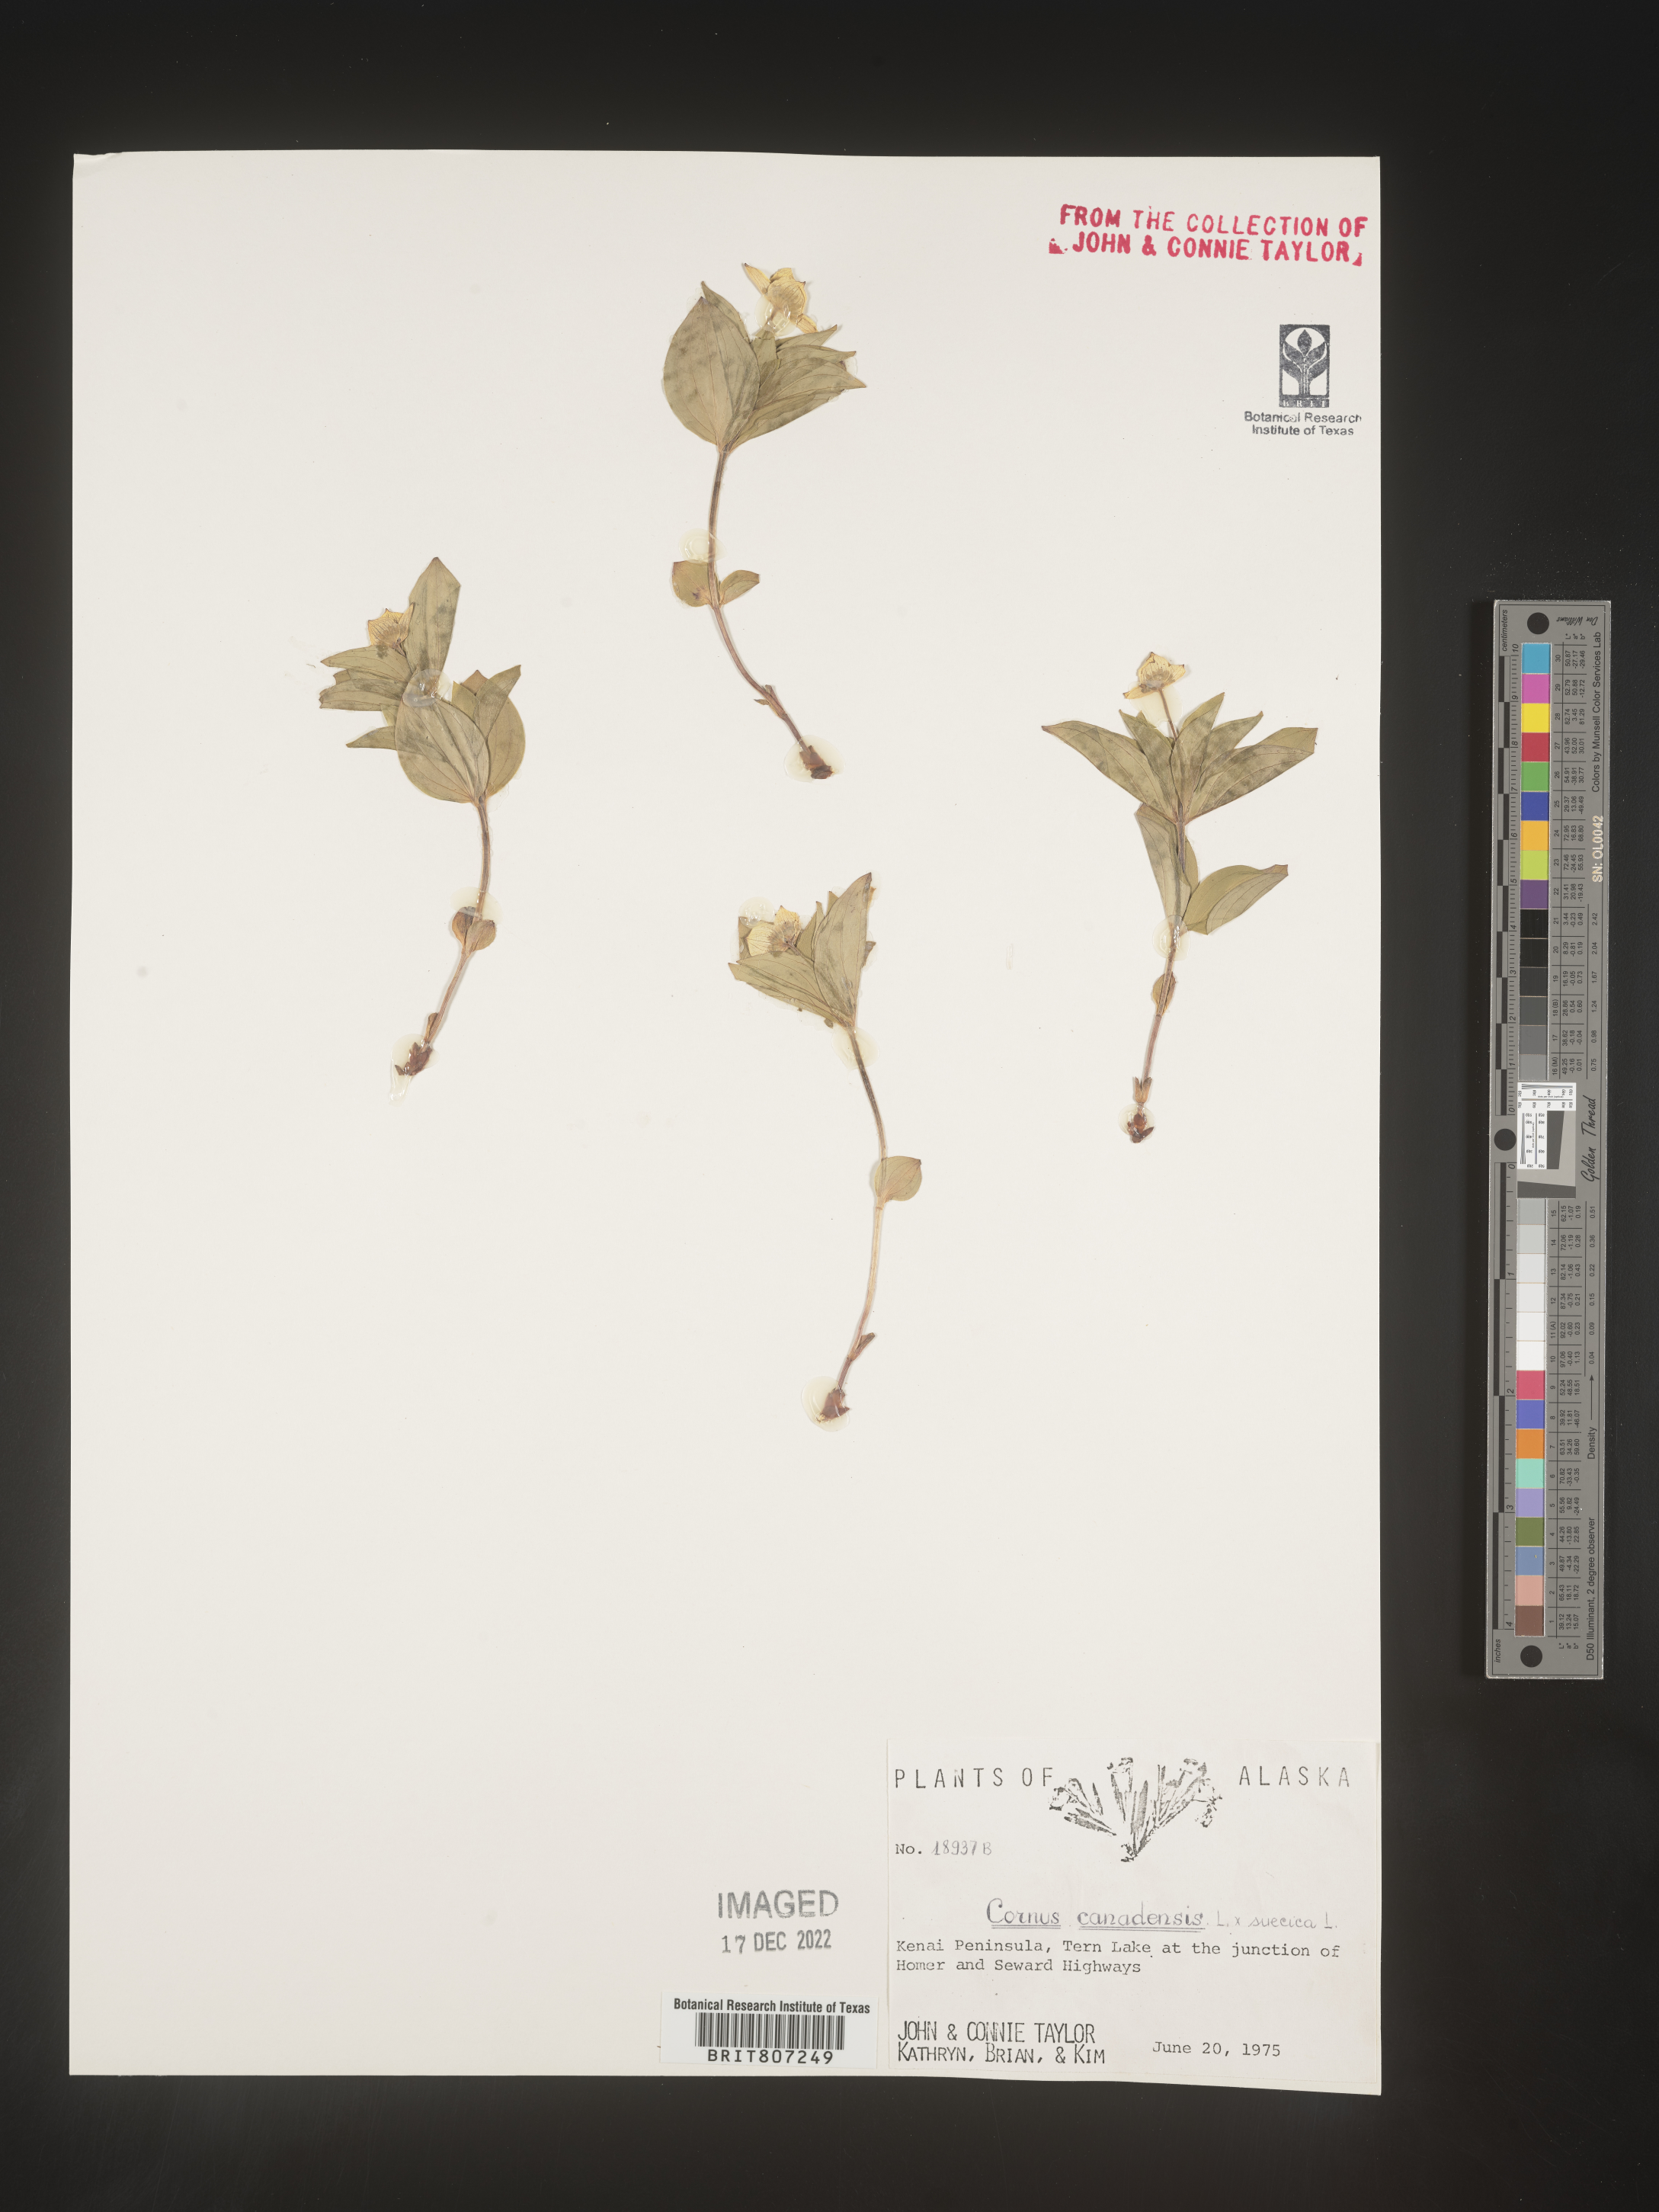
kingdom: Plantae
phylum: Tracheophyta
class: Magnoliopsida
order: Cornales
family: Cornaceae
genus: Cornus
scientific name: Cornus canadensis
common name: Creeping dogwood
